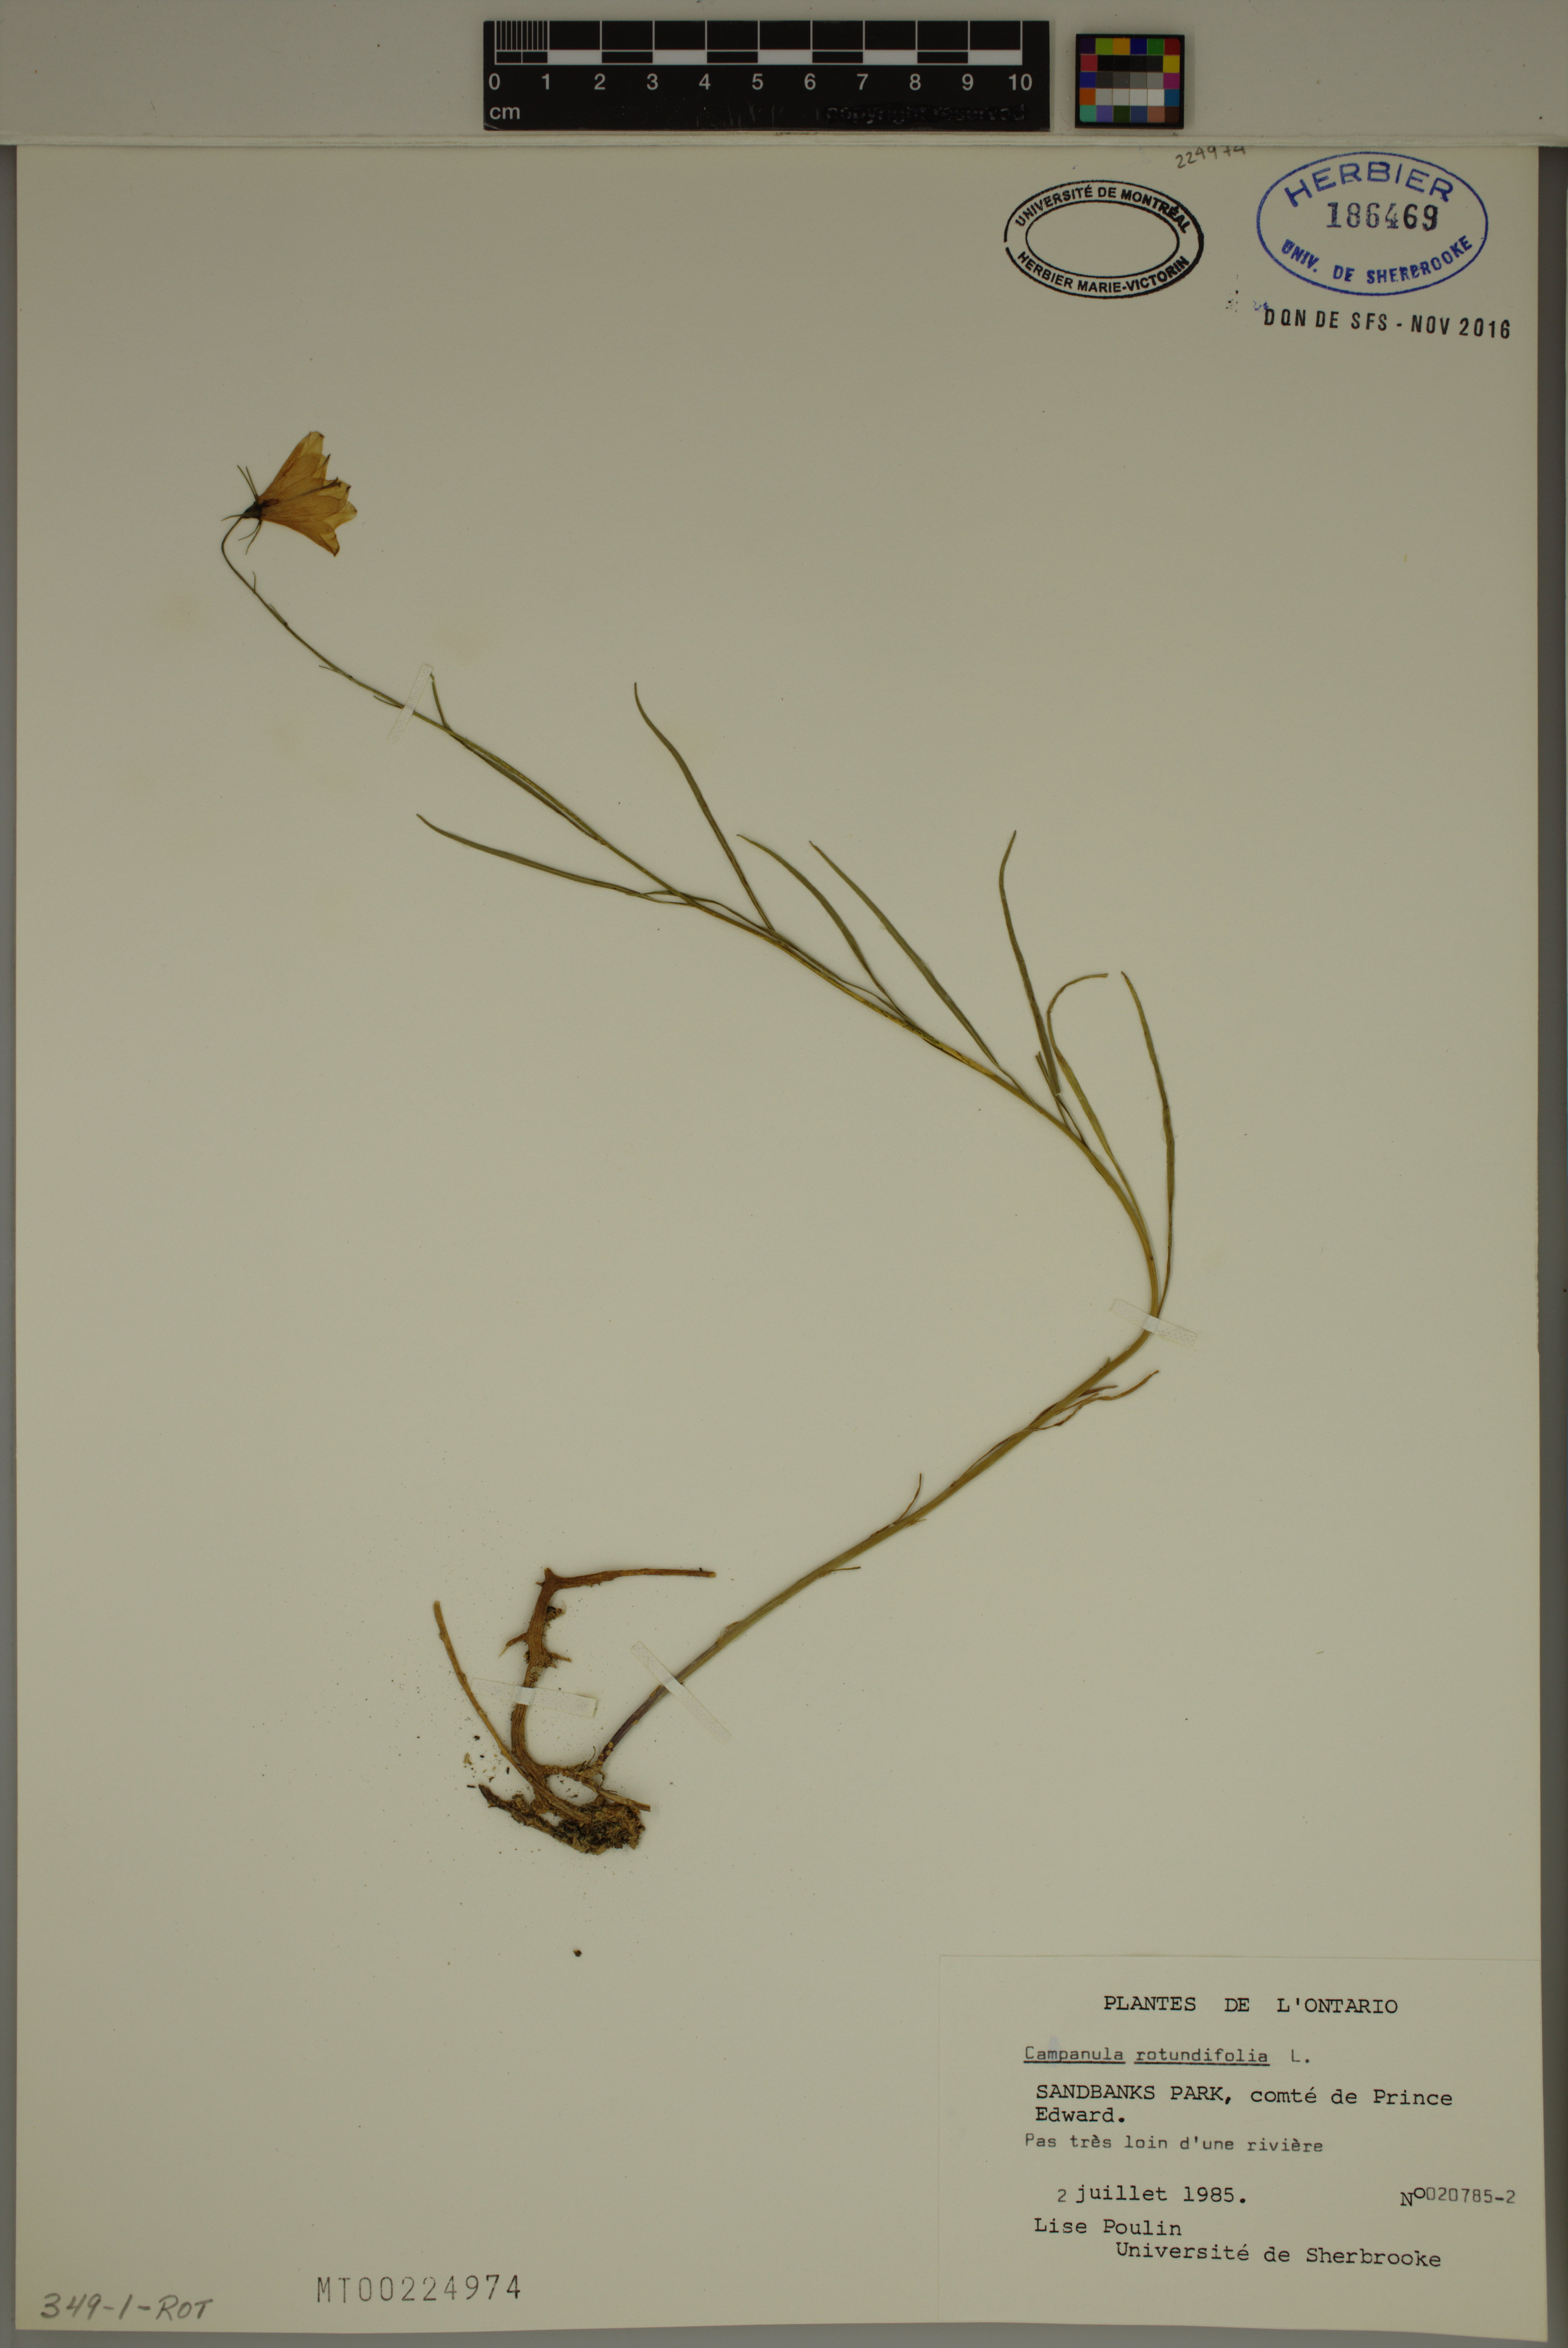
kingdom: Plantae
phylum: Tracheophyta
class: Magnoliopsida
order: Asterales
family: Campanulaceae
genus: Campanula
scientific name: Campanula rotundifolia
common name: Harebell
